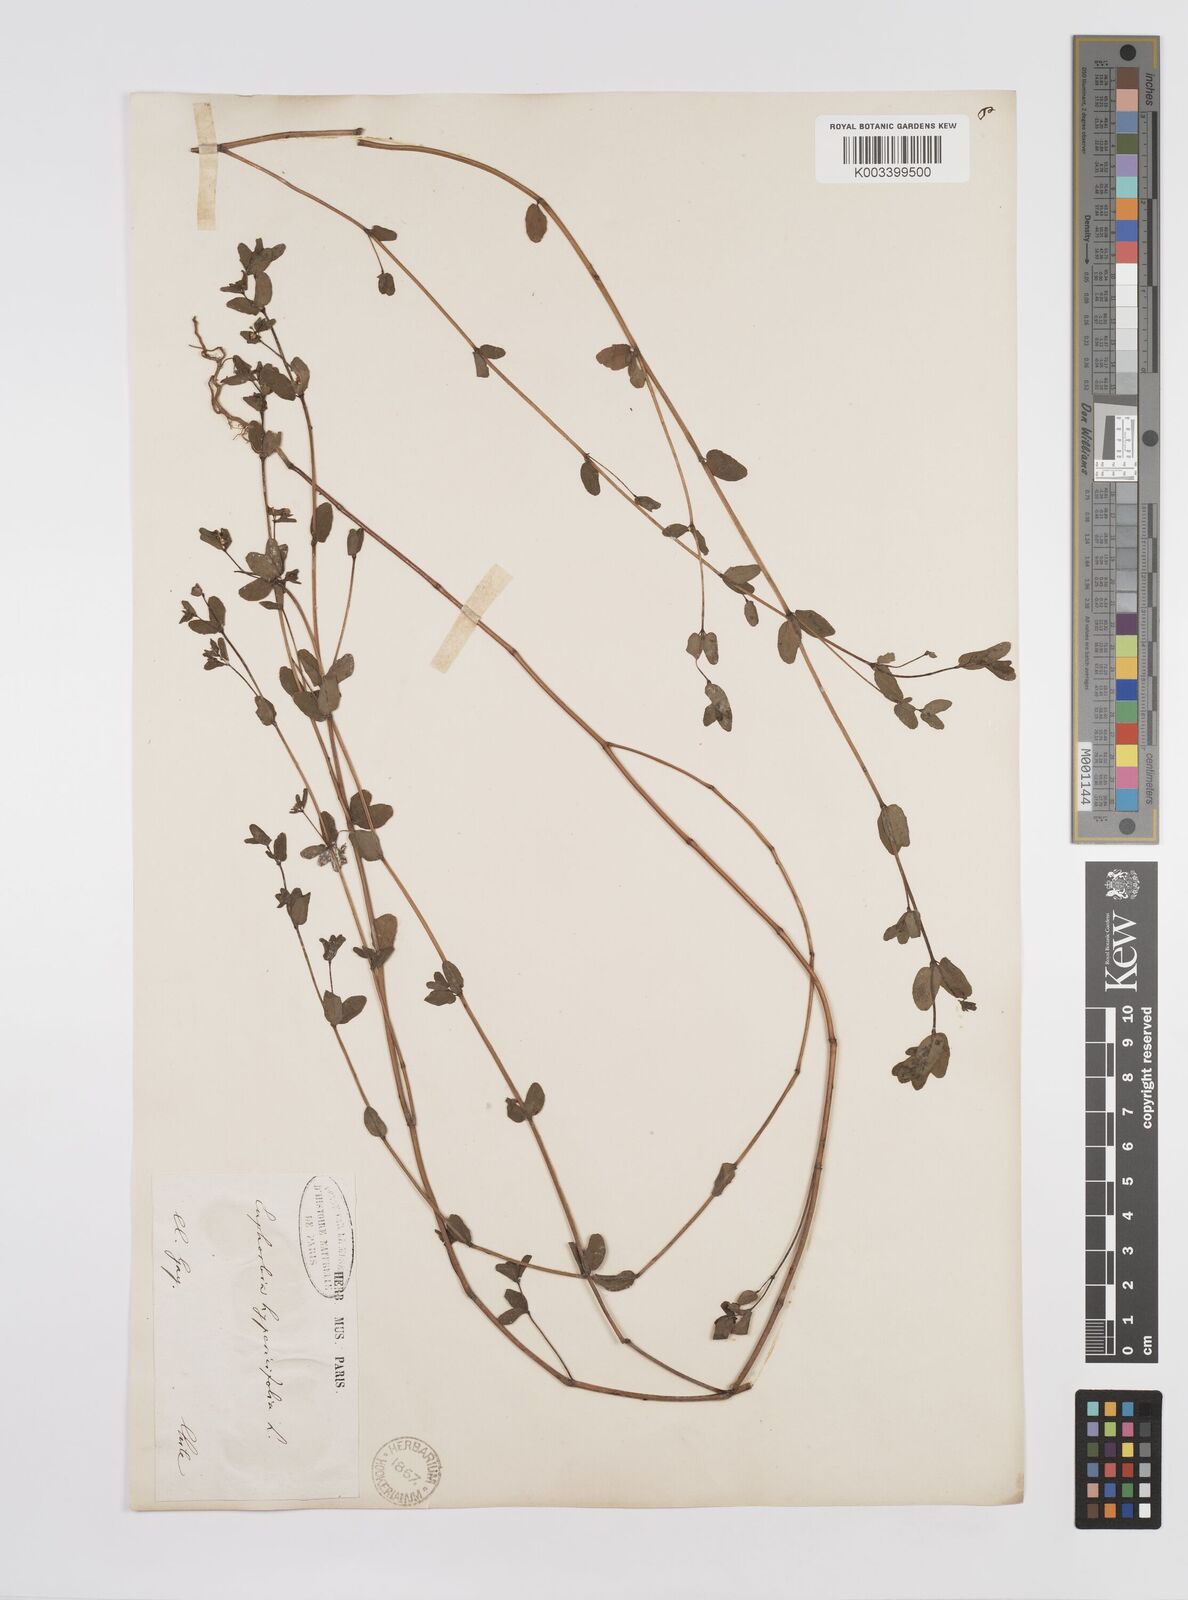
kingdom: Plantae
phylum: Tracheophyta
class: Magnoliopsida
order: Malpighiales
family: Euphorbiaceae
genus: Euphorbia
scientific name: Euphorbia hypericifolia
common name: Graceful sandmat
